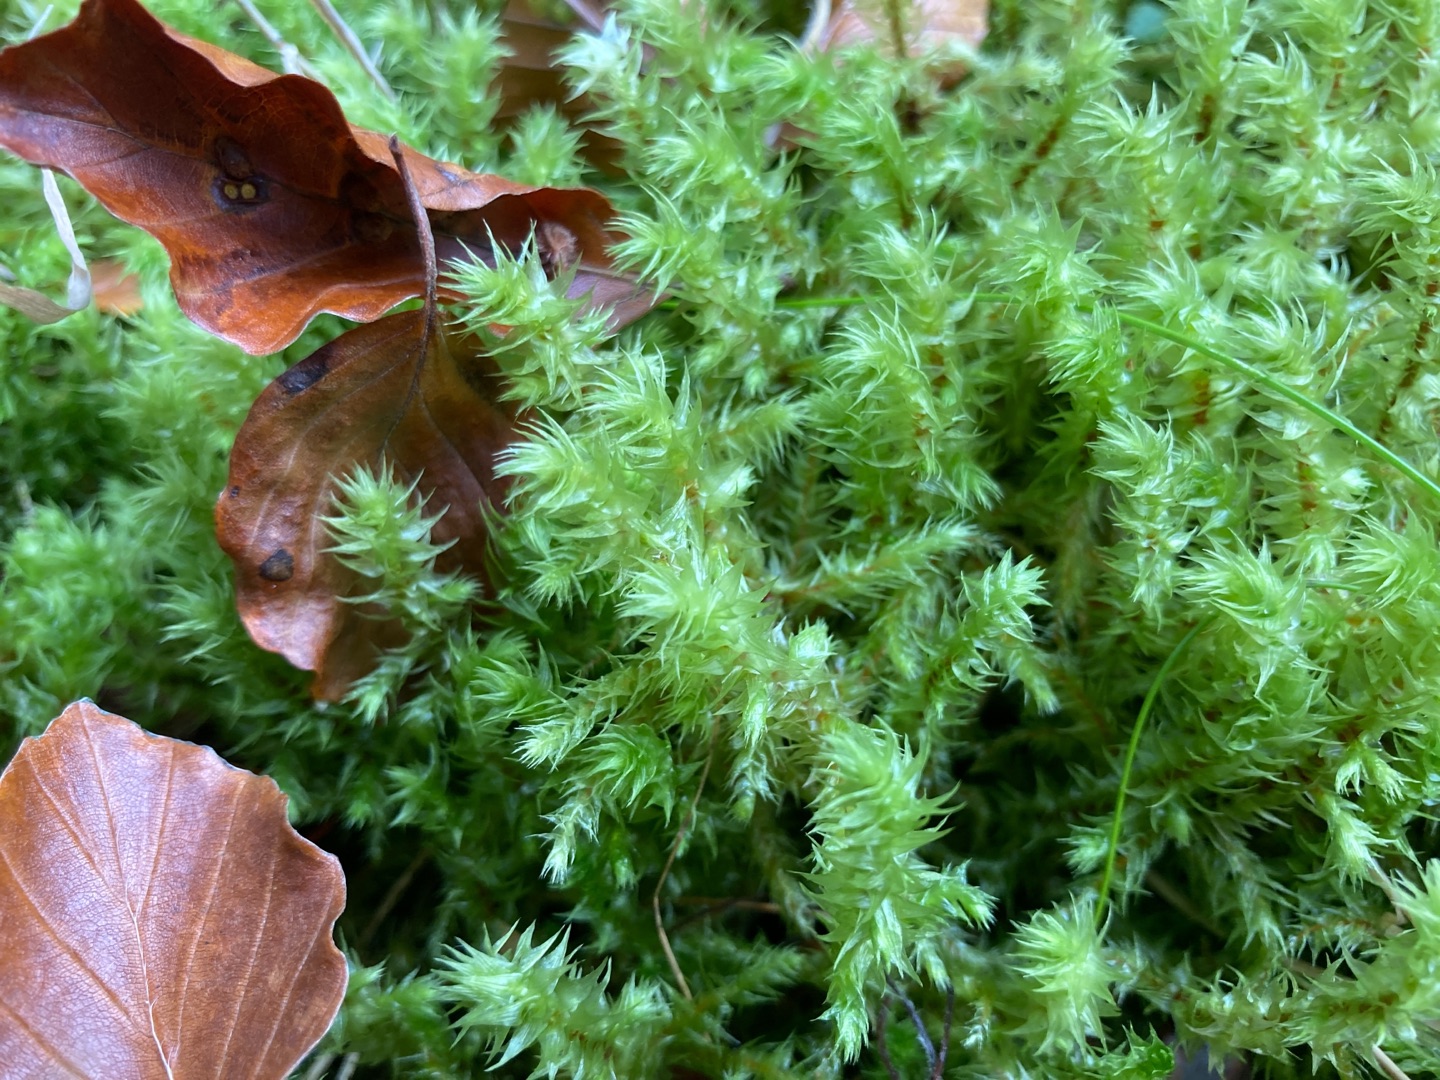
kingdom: Plantae
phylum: Bryophyta
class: Bryopsida
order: Hypnales
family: Hylocomiaceae
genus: Hylocomiadelphus
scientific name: Hylocomiadelphus triquetrus
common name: Stor kransemos
